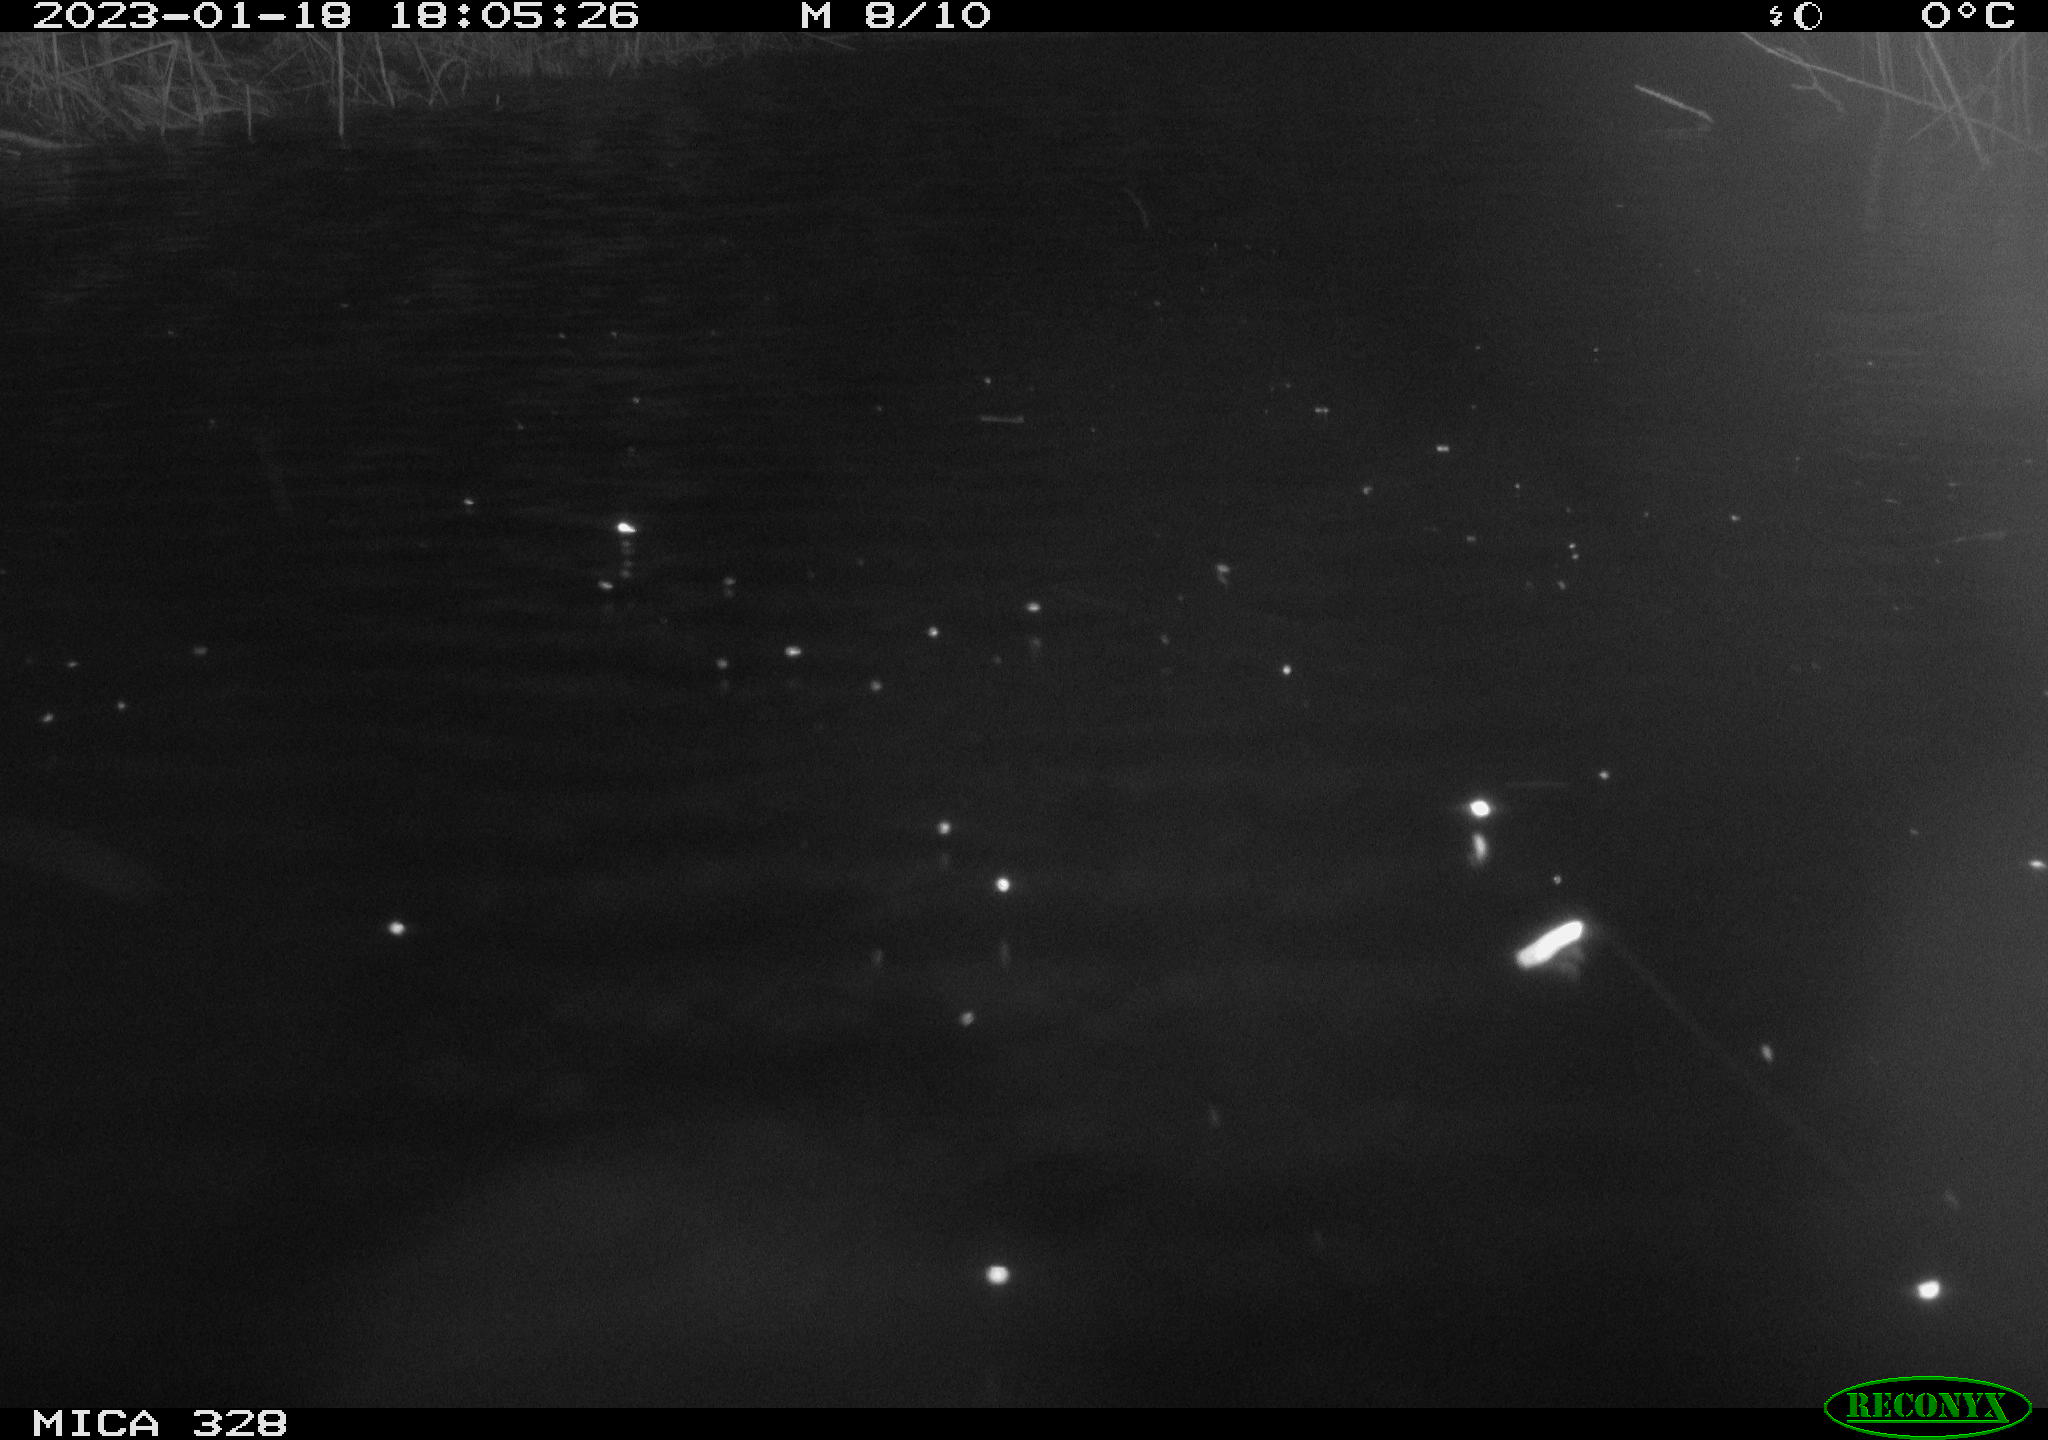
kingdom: Animalia
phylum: Chordata
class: Mammalia
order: Rodentia
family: Muridae
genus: Rattus
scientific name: Rattus norvegicus
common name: Brown rat
